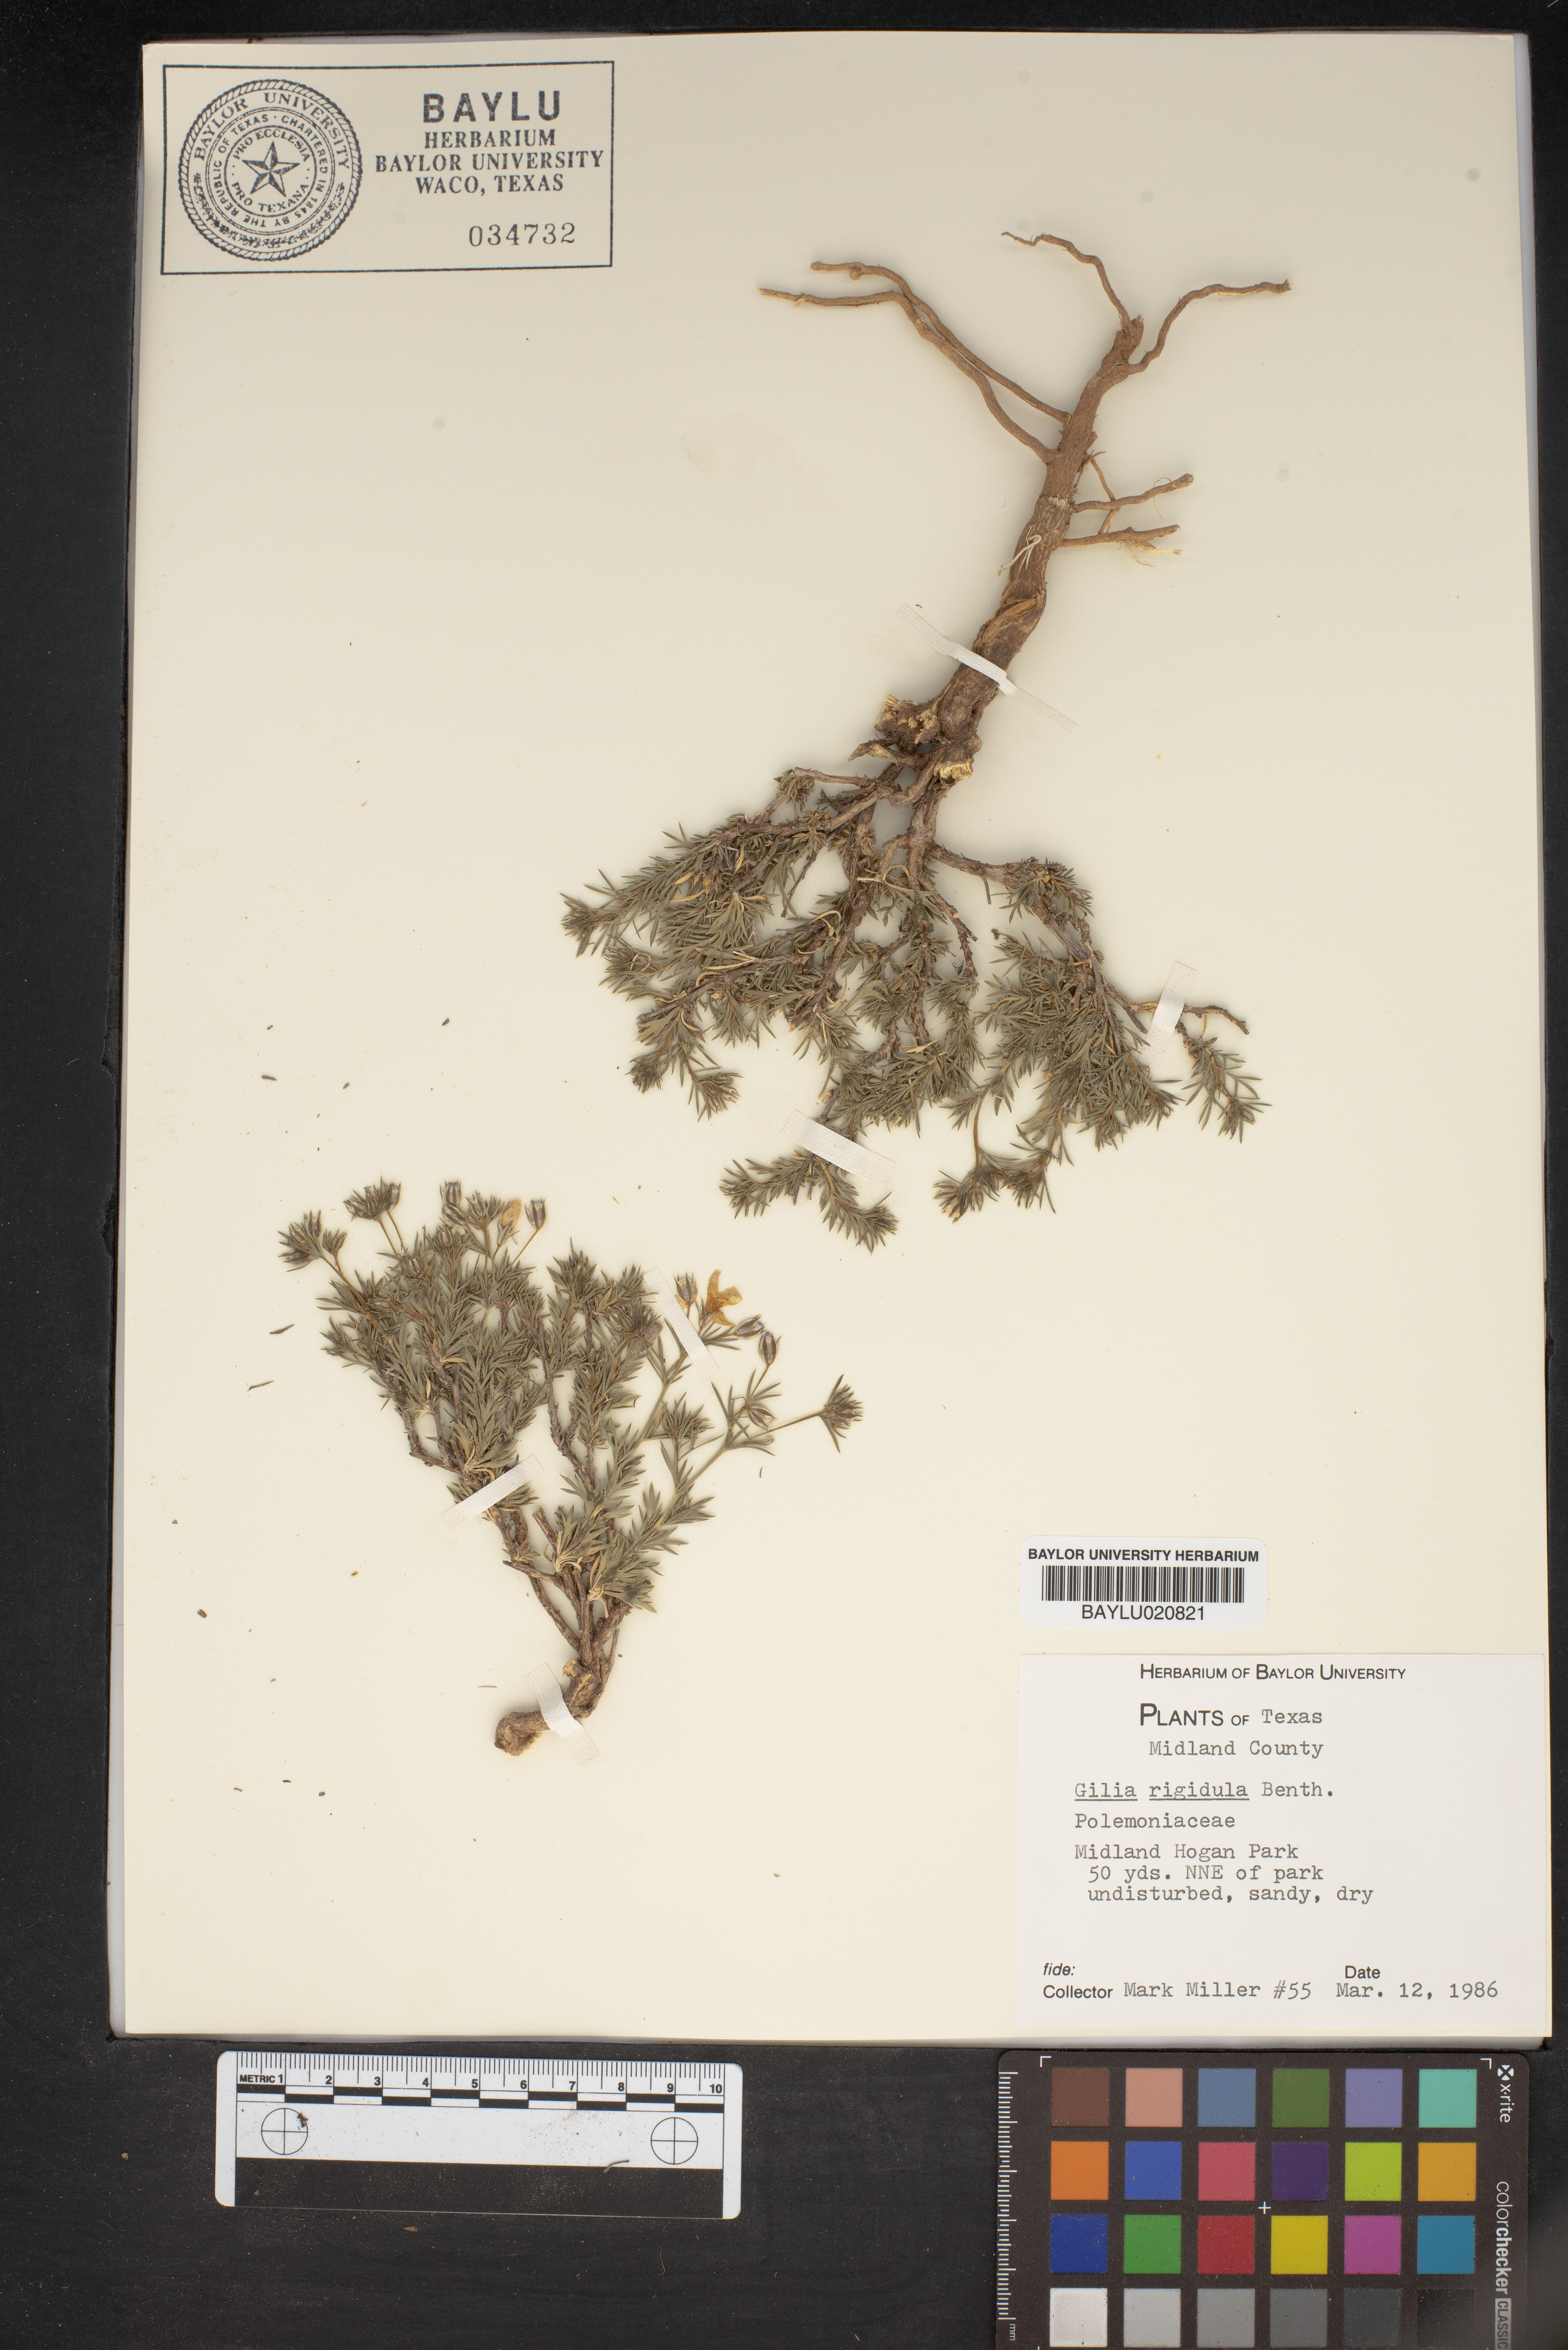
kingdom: Plantae
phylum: Tracheophyta
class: Magnoliopsida
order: Ericales
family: Polemoniaceae
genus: Giliastrum
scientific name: Giliastrum rigidulum
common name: Bluebowls
